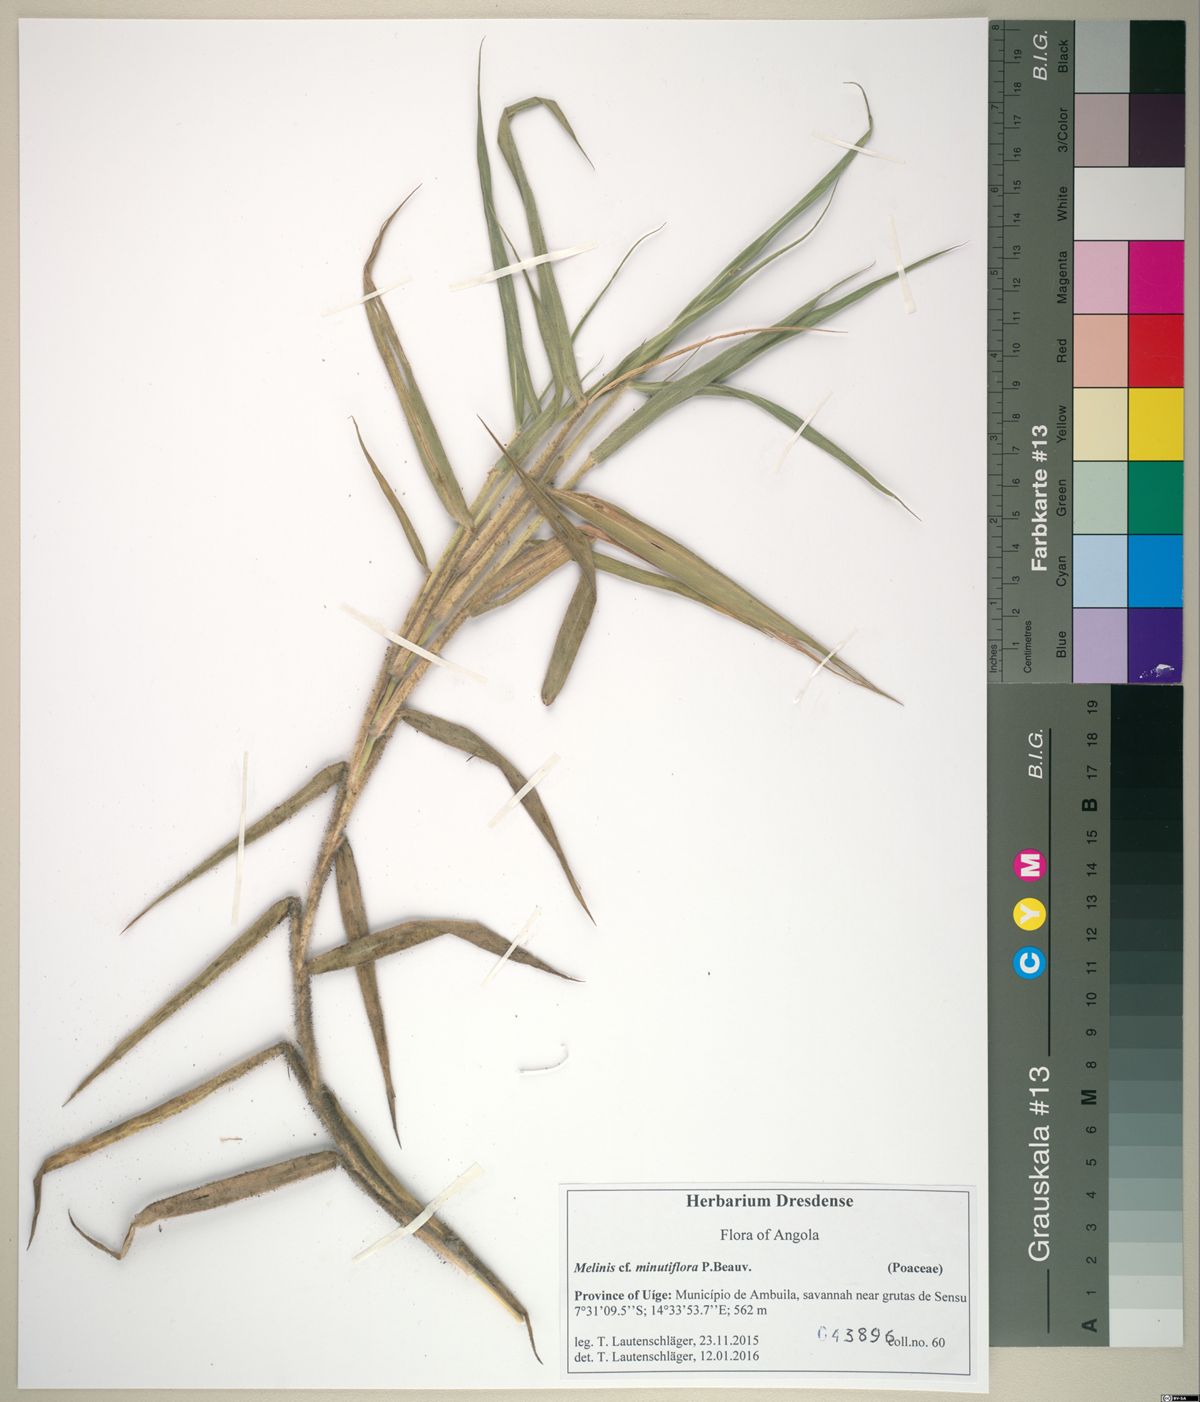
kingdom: Plantae
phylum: Tracheophyta
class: Liliopsida
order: Poales
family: Poaceae
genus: Melinis
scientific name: Melinis minutiflora
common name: Molassesgrass
